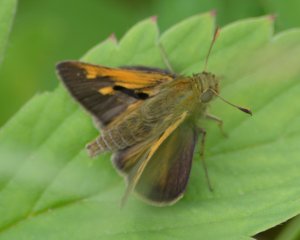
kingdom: Animalia
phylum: Arthropoda
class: Insecta
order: Lepidoptera
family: Hesperiidae
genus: Polites
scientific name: Polites themistocles
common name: Tawny-edged Skipper
